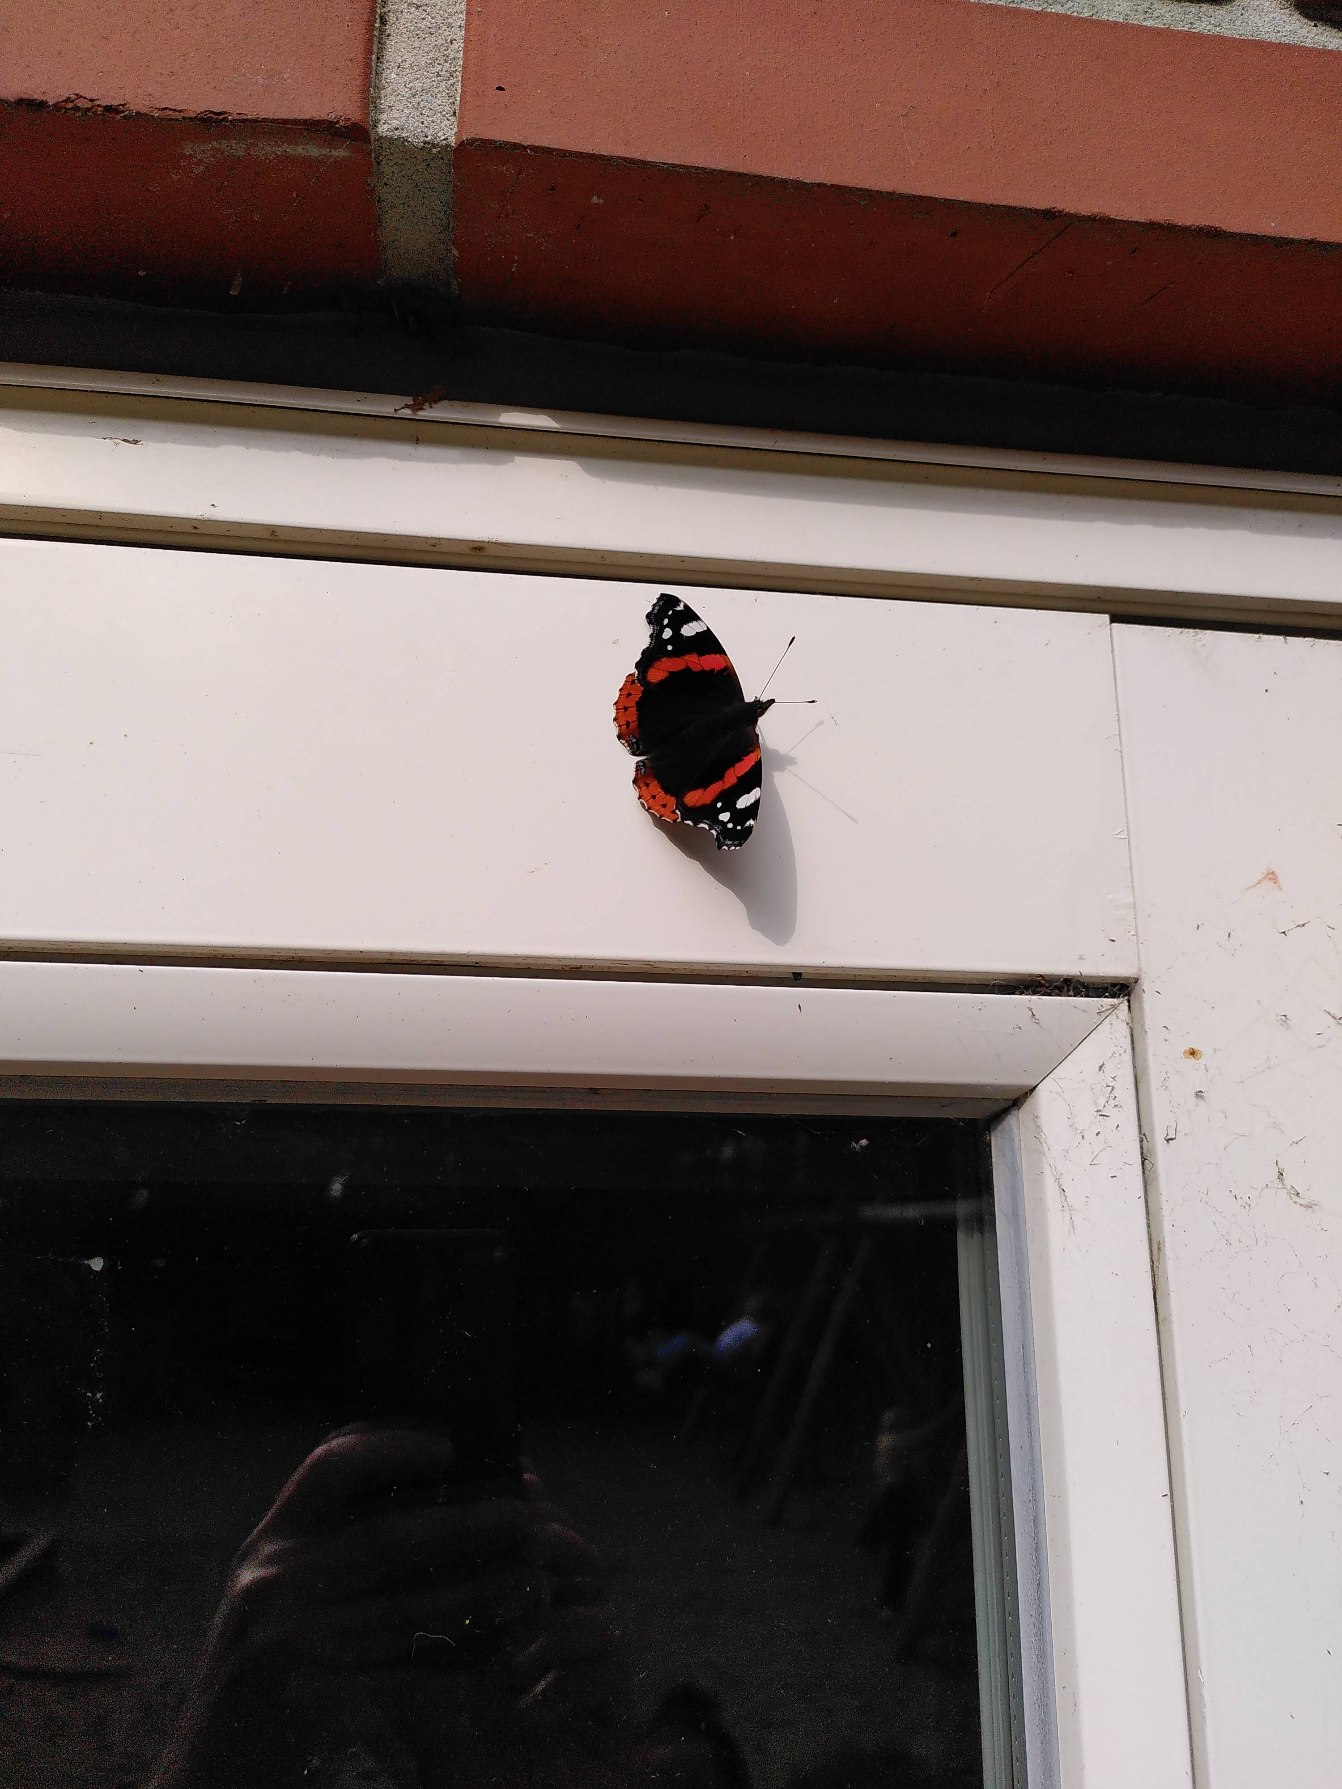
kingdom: Animalia
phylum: Arthropoda
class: Insecta
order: Lepidoptera
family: Nymphalidae
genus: Vanessa
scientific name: Vanessa atalanta
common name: Admiral
